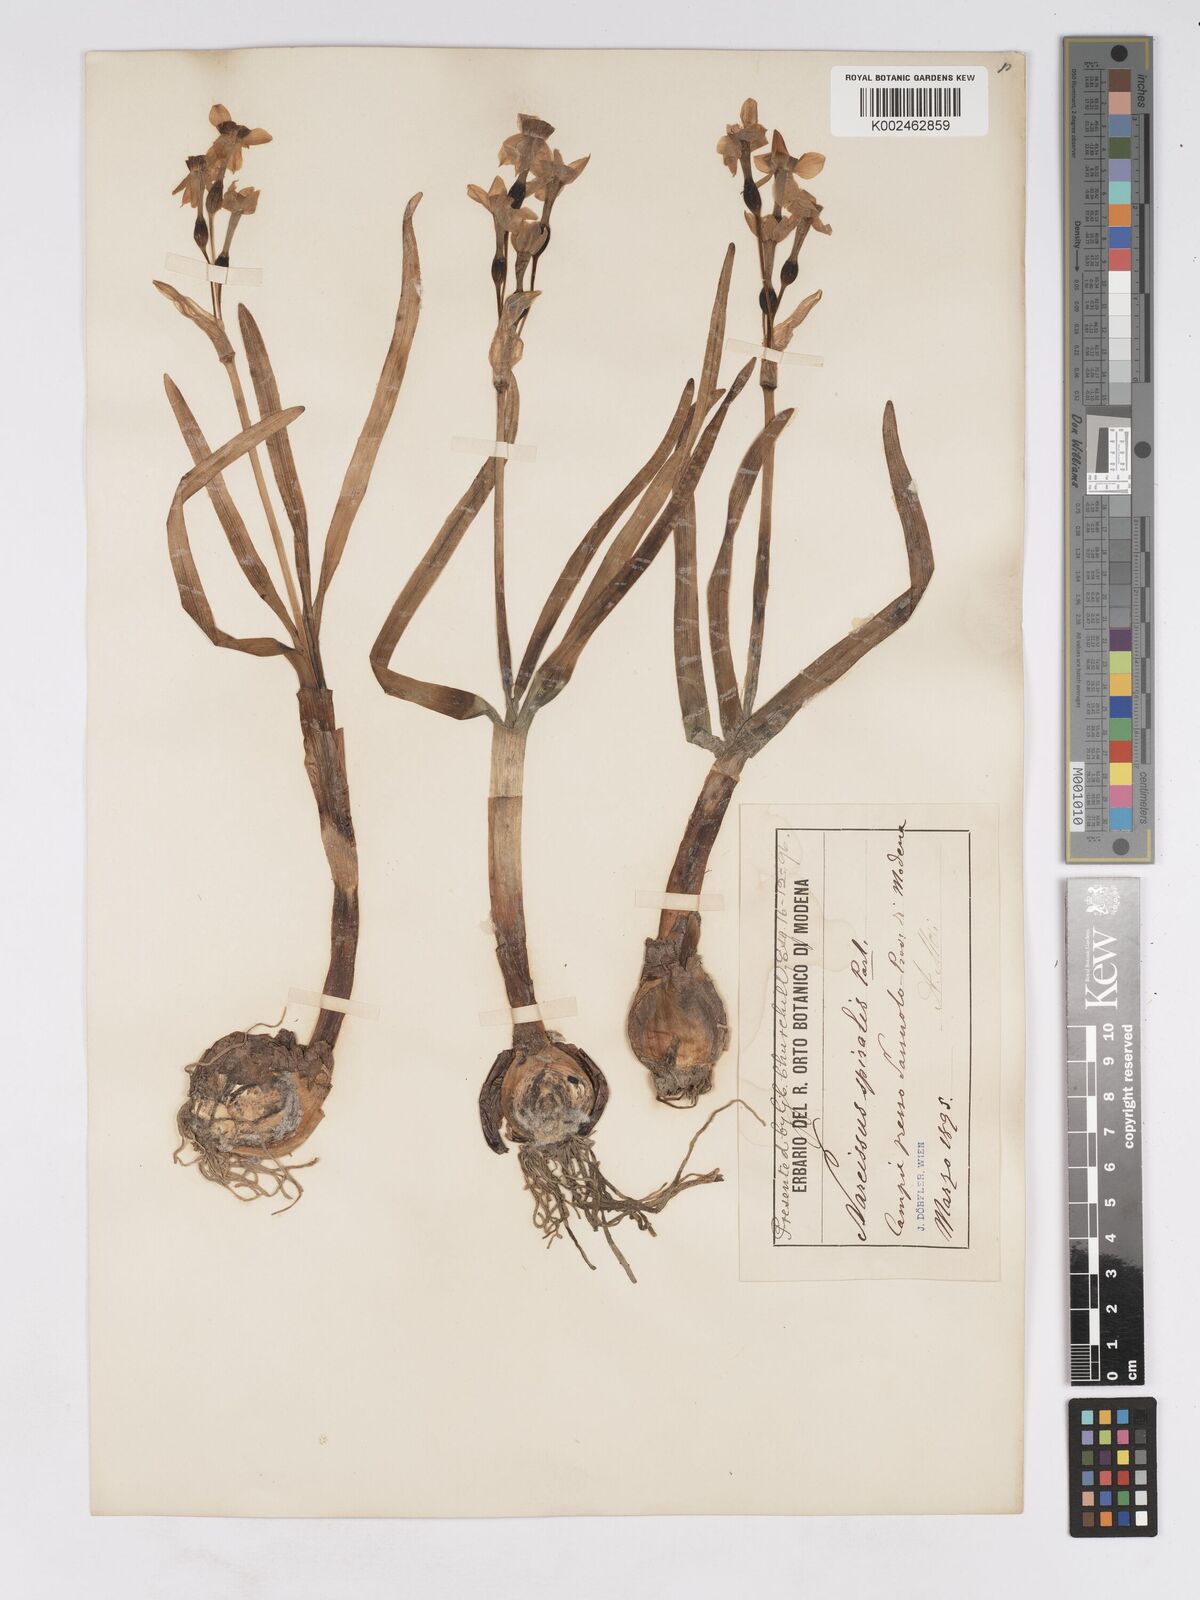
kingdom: Plantae
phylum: Tracheophyta
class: Liliopsida
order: Asparagales
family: Amaryllidaceae
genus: Narcissus
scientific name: Narcissus tazetta
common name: Bunch-flowered daffodil
